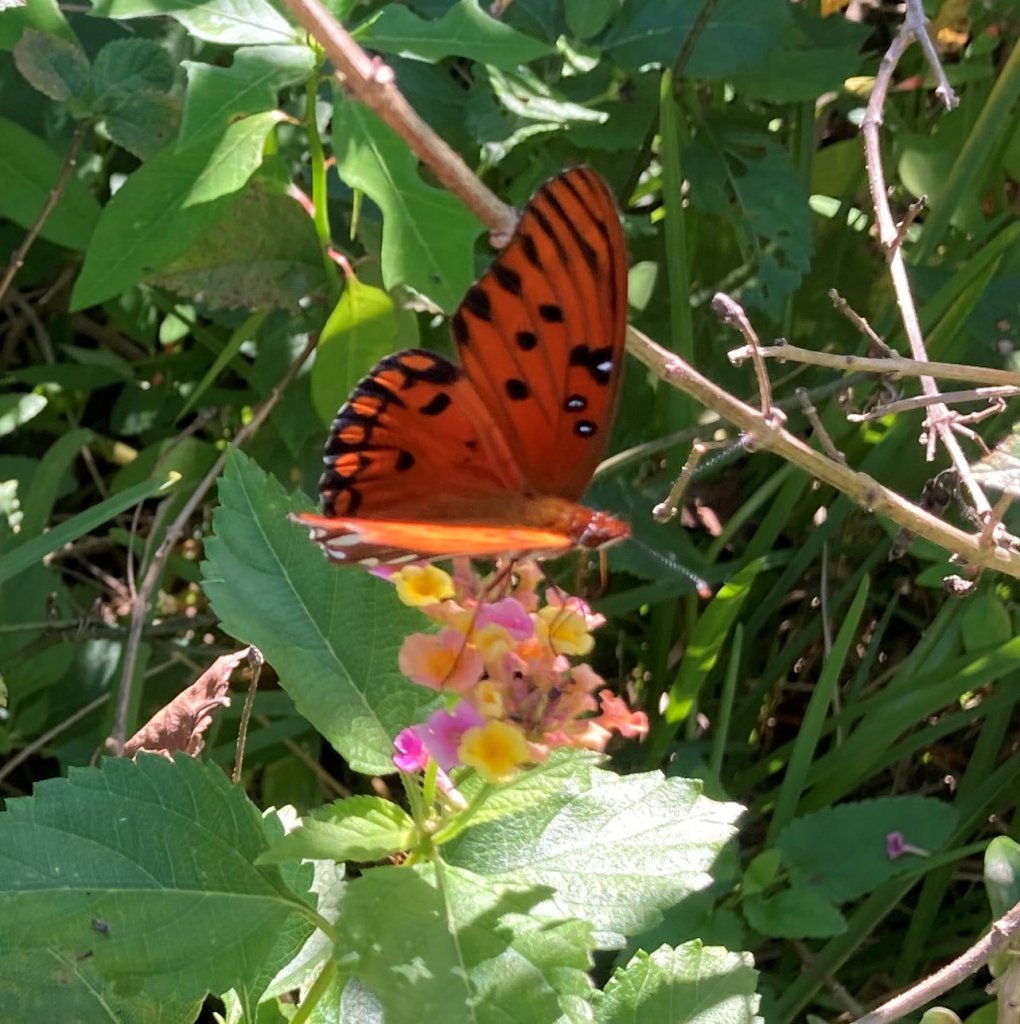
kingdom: Animalia
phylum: Arthropoda
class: Insecta
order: Lepidoptera
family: Nymphalidae
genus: Dione
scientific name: Dione vanillae
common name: Gulf Fritillary
